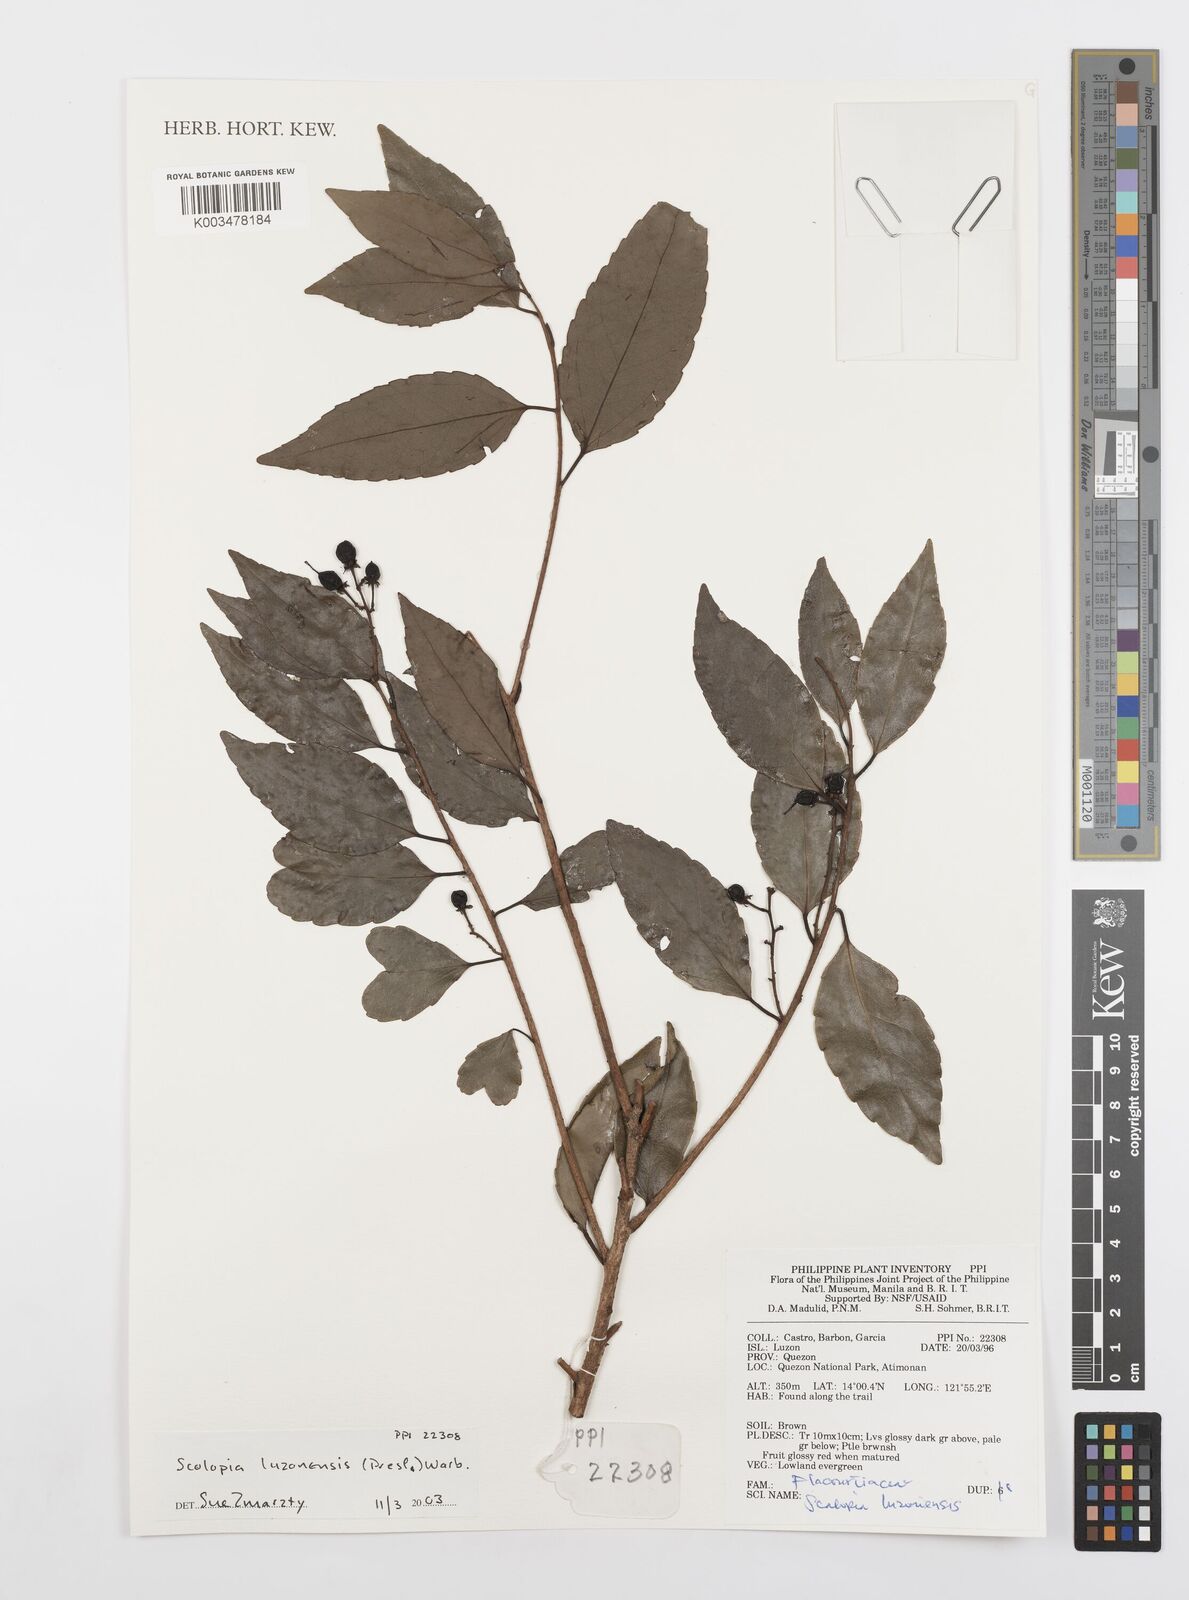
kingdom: Plantae
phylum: Tracheophyta
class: Magnoliopsida
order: Malpighiales
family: Salicaceae
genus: Scolopia
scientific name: Scolopia luzonensis
